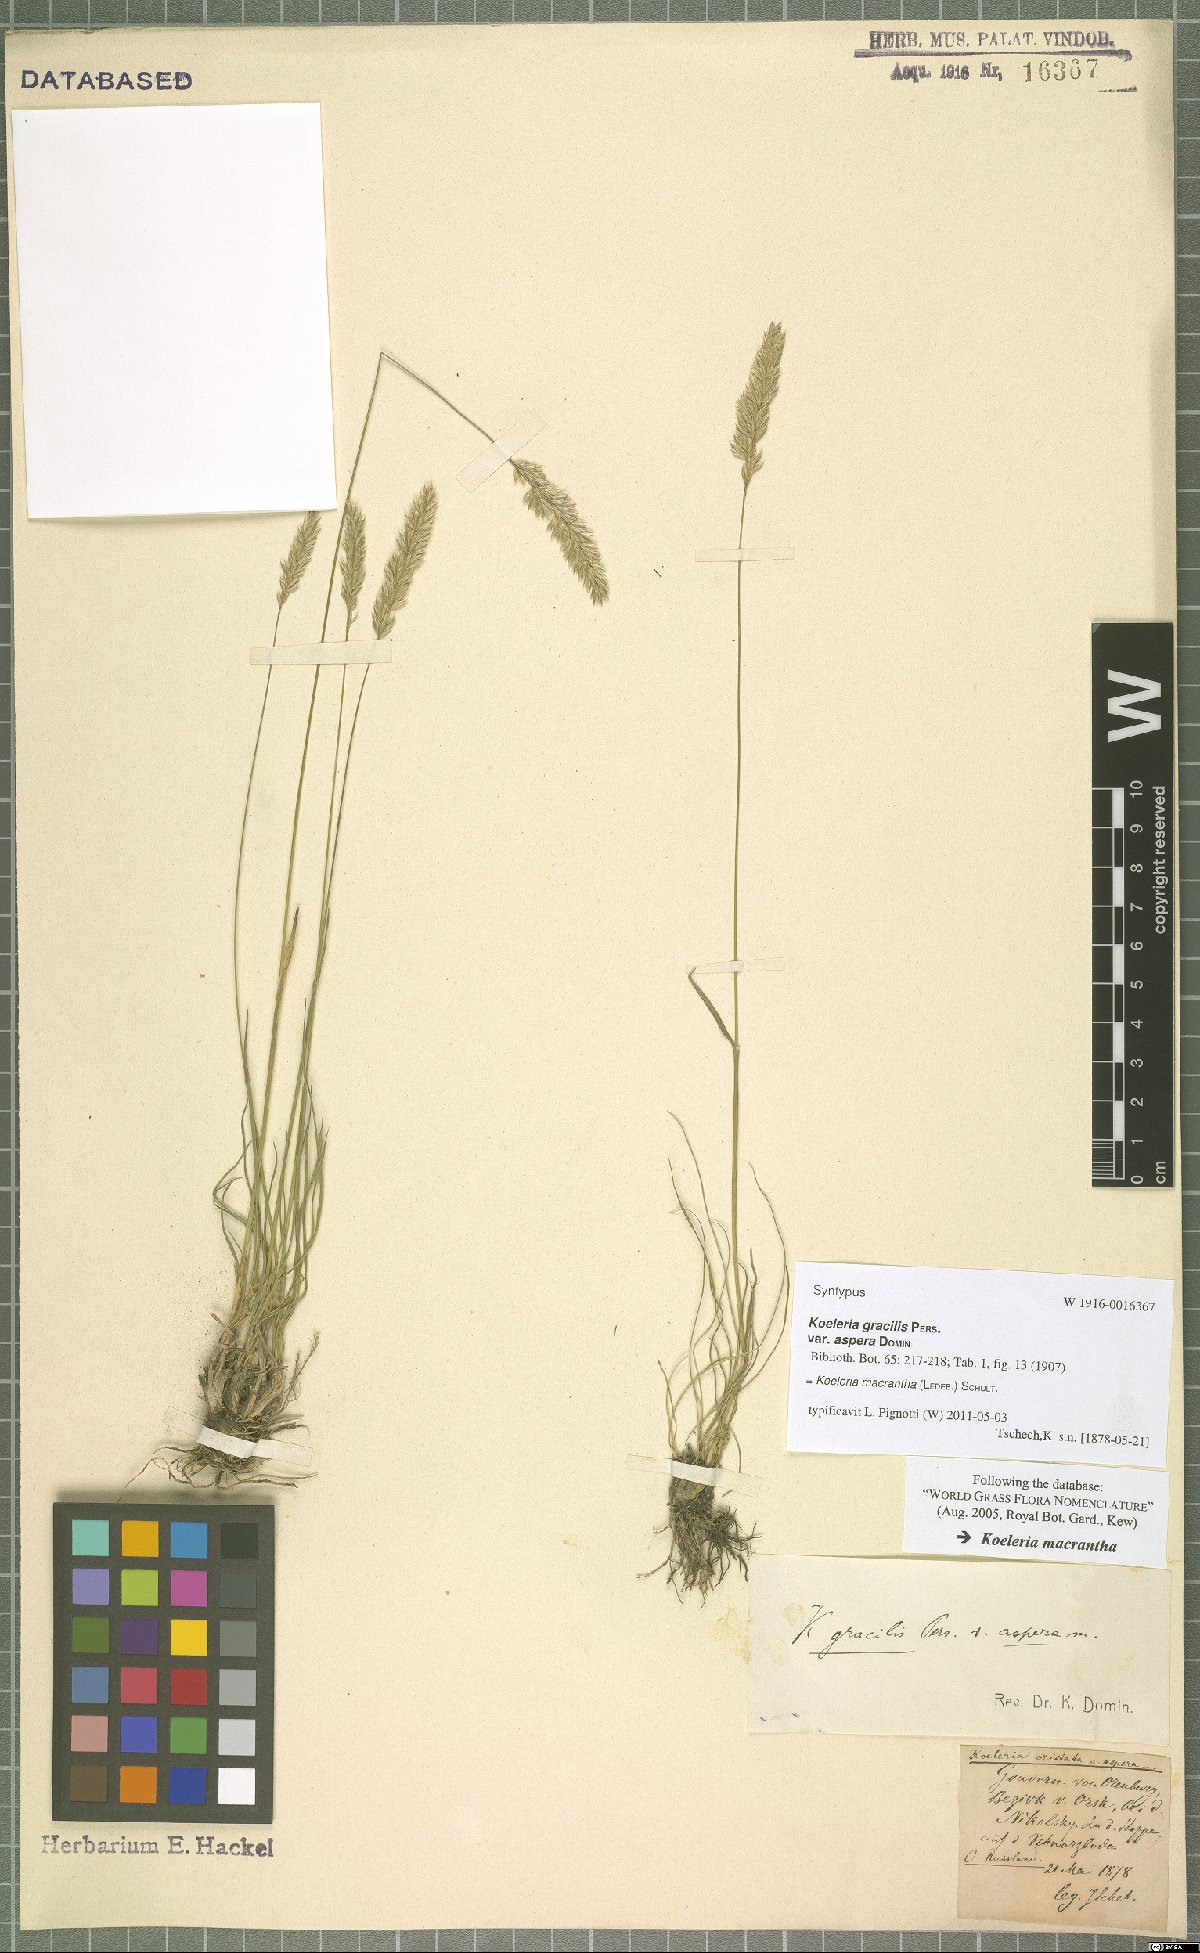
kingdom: Plantae
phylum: Tracheophyta
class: Liliopsida
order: Poales
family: Poaceae
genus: Koeleria
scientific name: Koeleria macrantha
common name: Crested hair-grass
